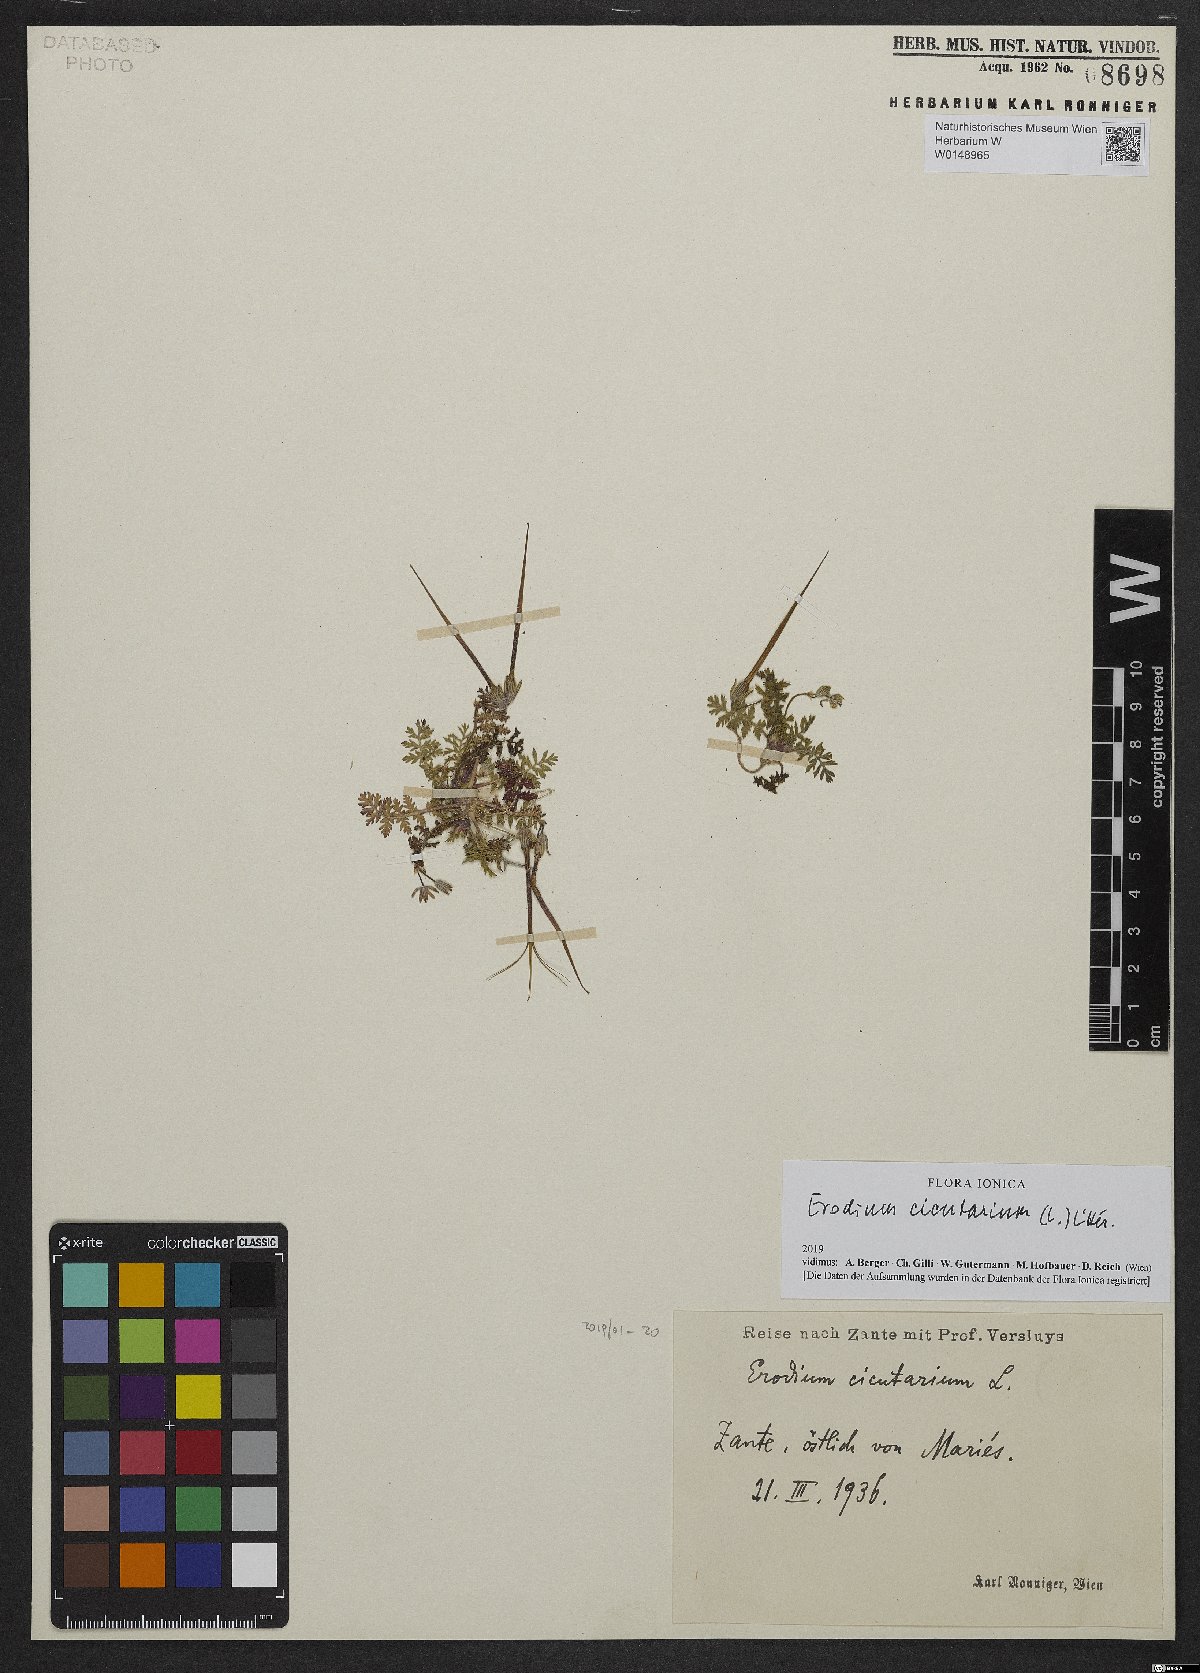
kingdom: Plantae
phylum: Tracheophyta
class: Magnoliopsida
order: Geraniales
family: Geraniaceae
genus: Erodium
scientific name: Erodium cicutarium
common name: Common stork's-bill
